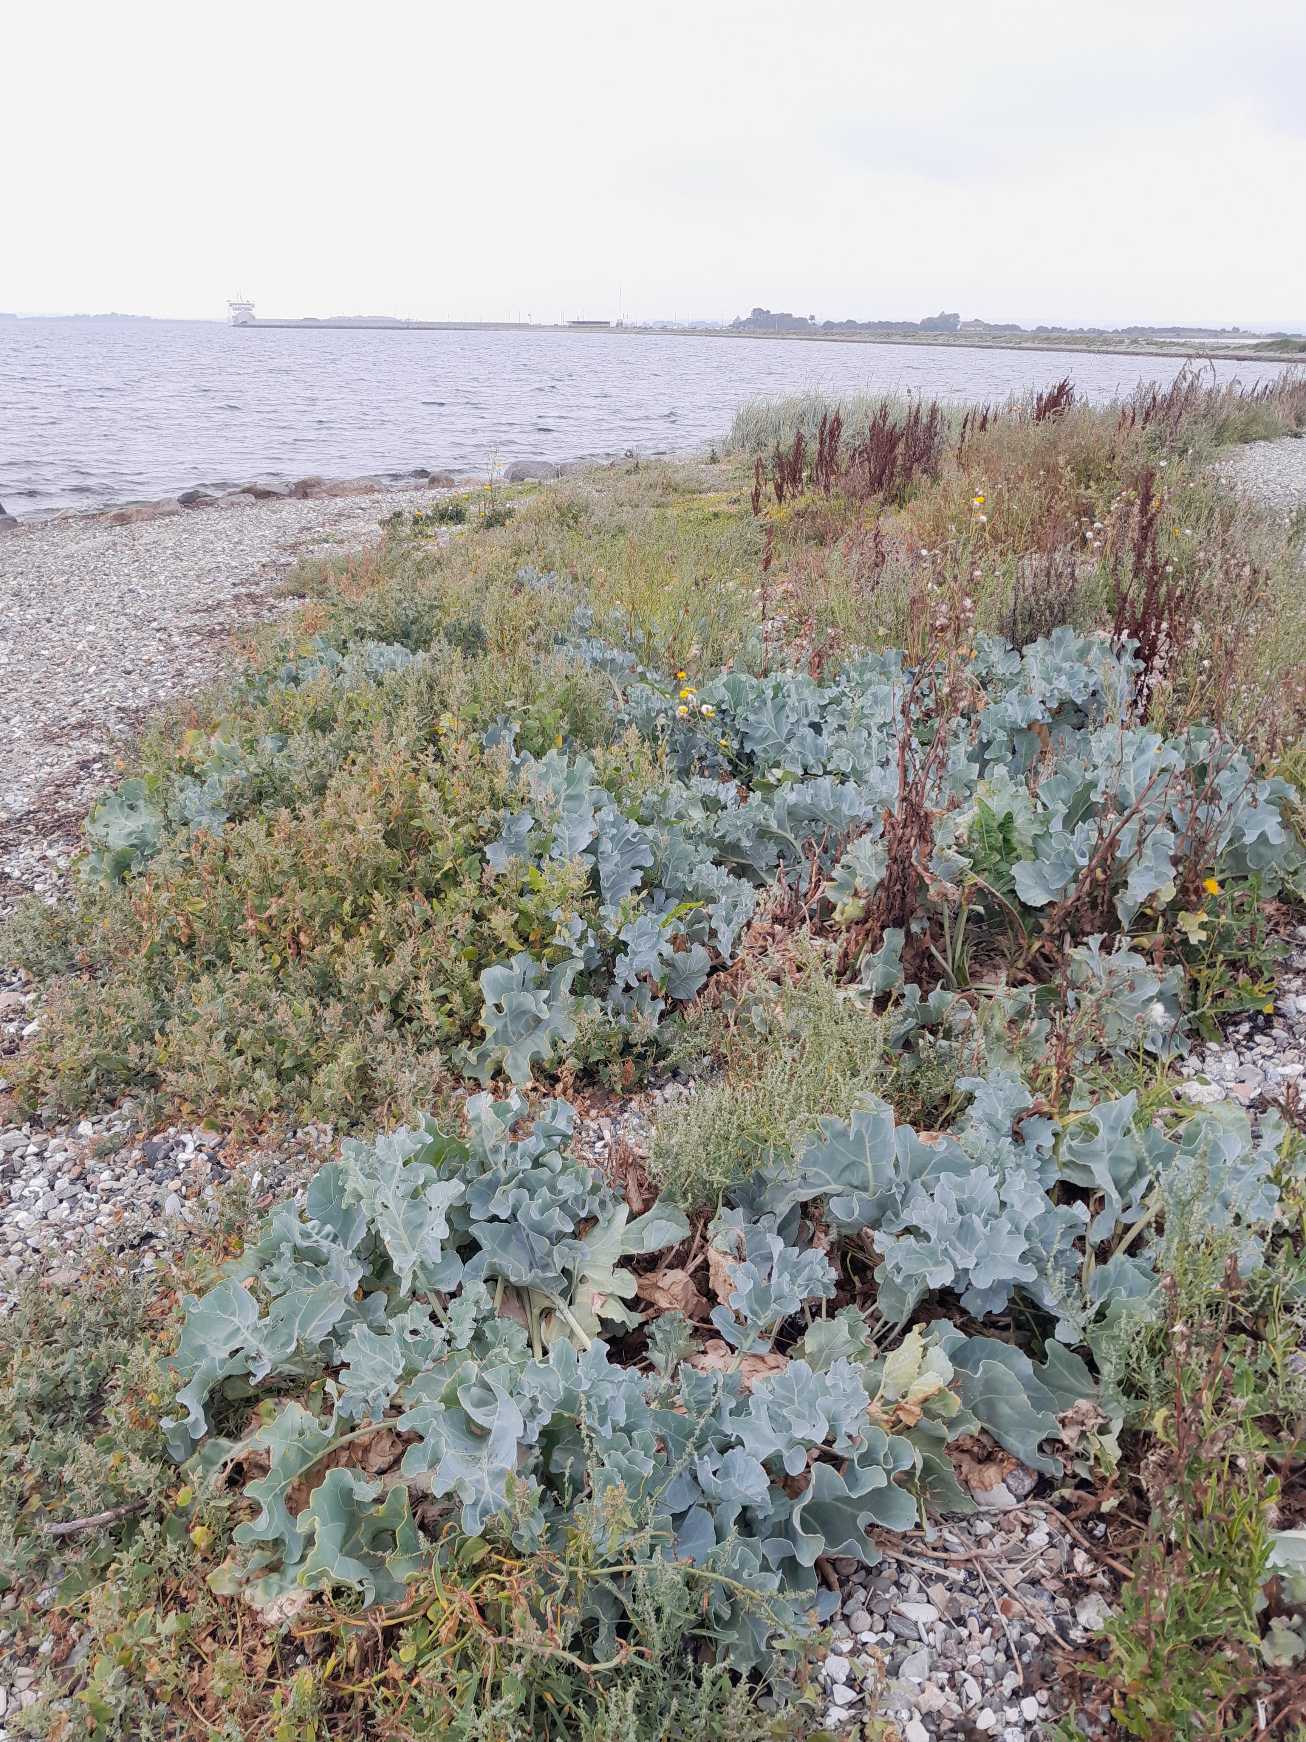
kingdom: Plantae
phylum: Tracheophyta
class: Magnoliopsida
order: Brassicales
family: Brassicaceae
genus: Crambe
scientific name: Crambe maritima
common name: Strandkål
